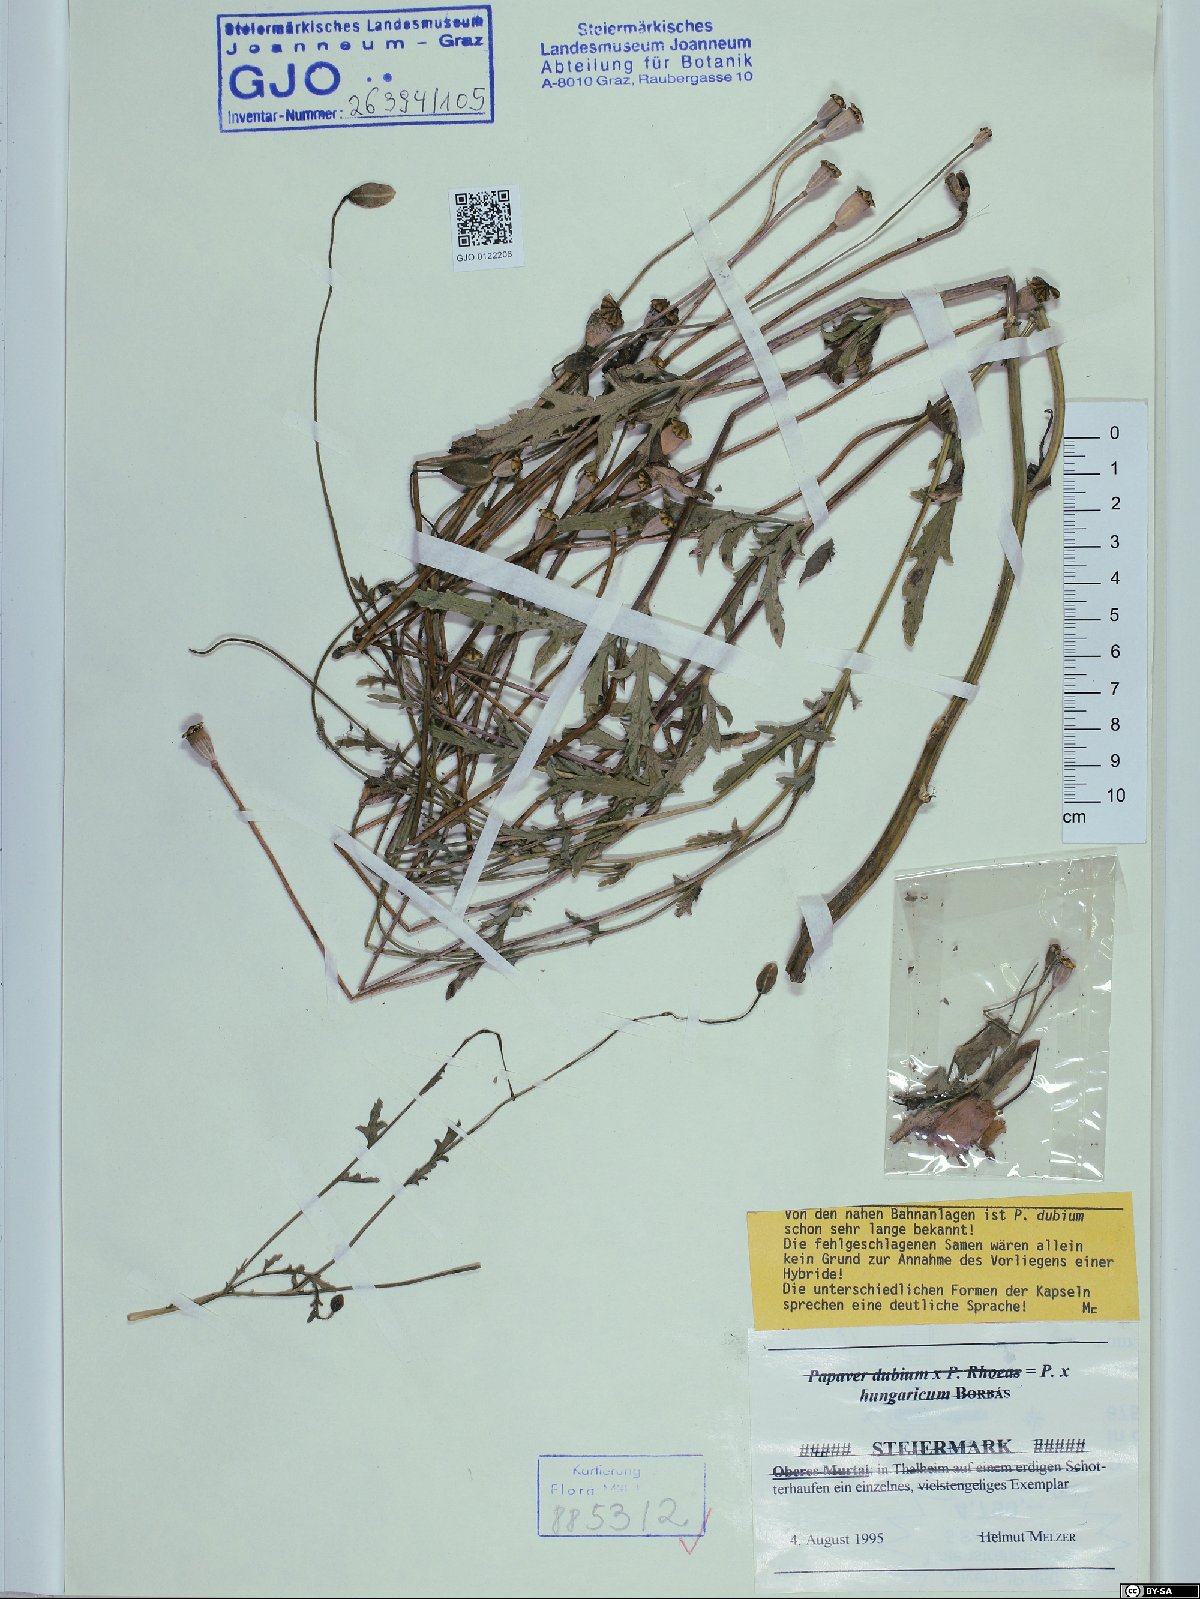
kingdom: Plantae
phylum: Tracheophyta
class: Magnoliopsida
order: Ranunculales
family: Papaveraceae
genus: Papaver
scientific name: Papaver strigosum
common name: Poppy
